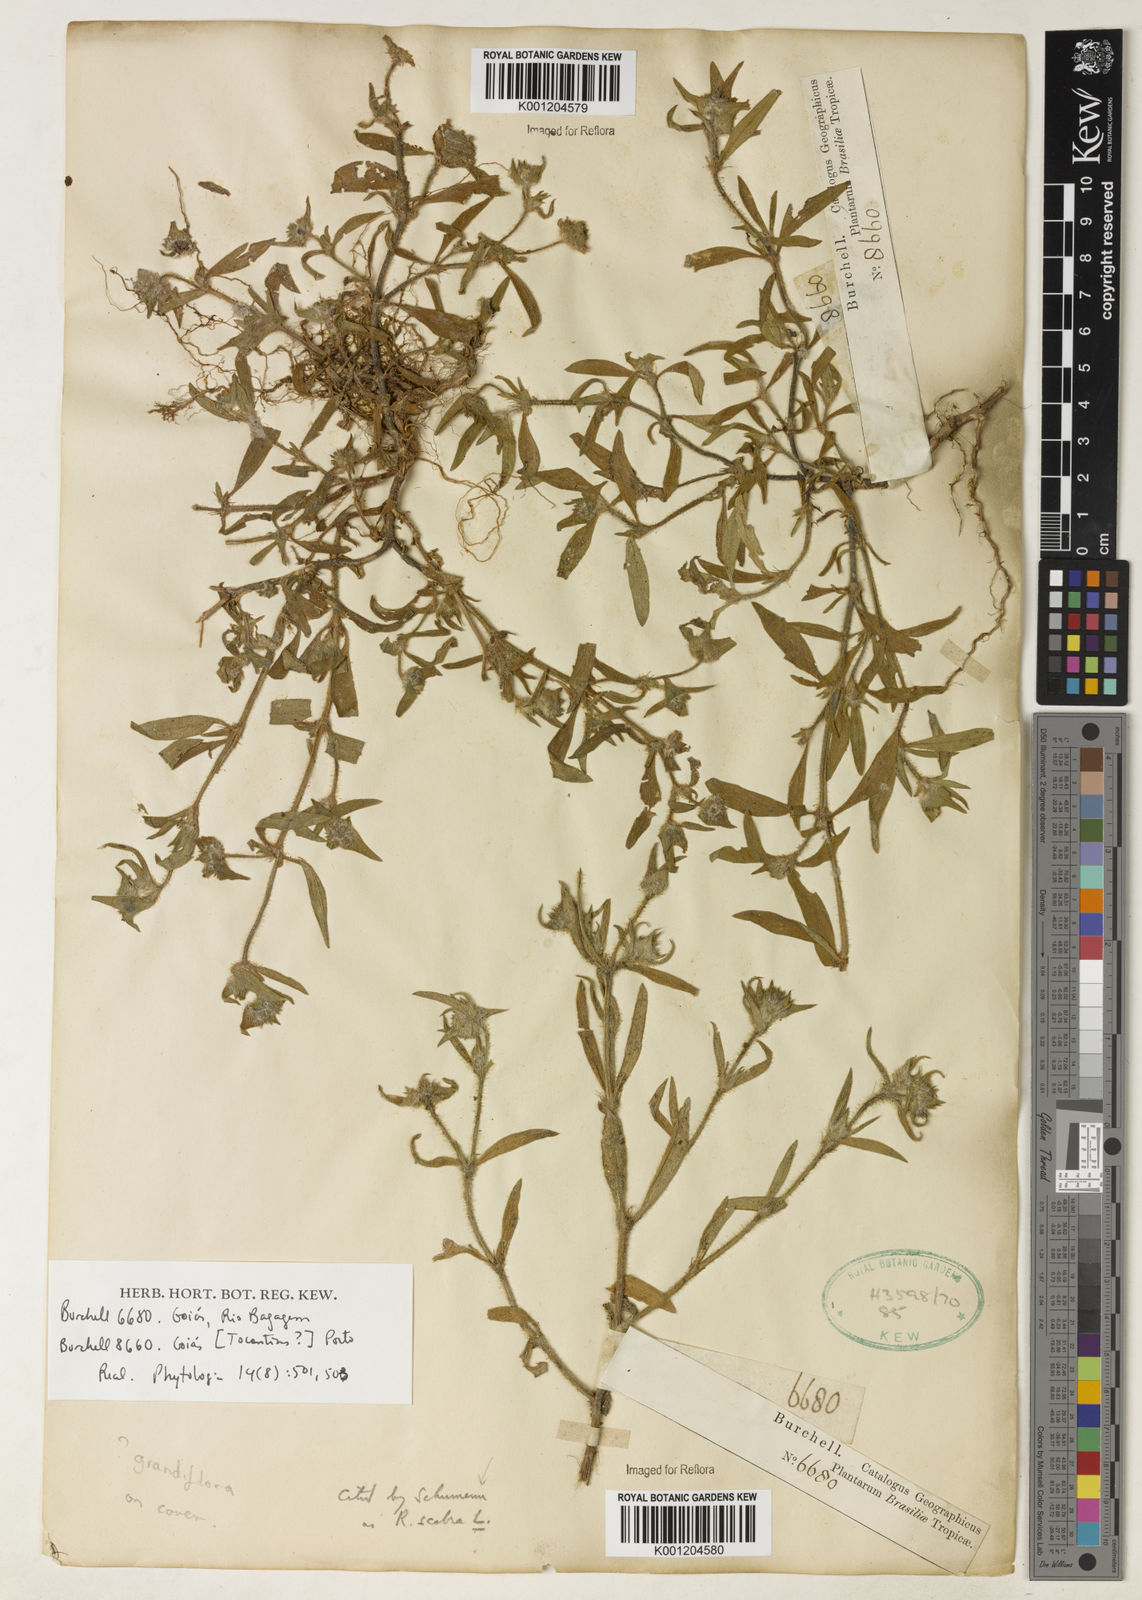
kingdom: Plantae
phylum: Tracheophyta
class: Magnoliopsida
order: Gentianales
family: Rubiaceae
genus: Richardia
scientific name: Richardia grandiflora
